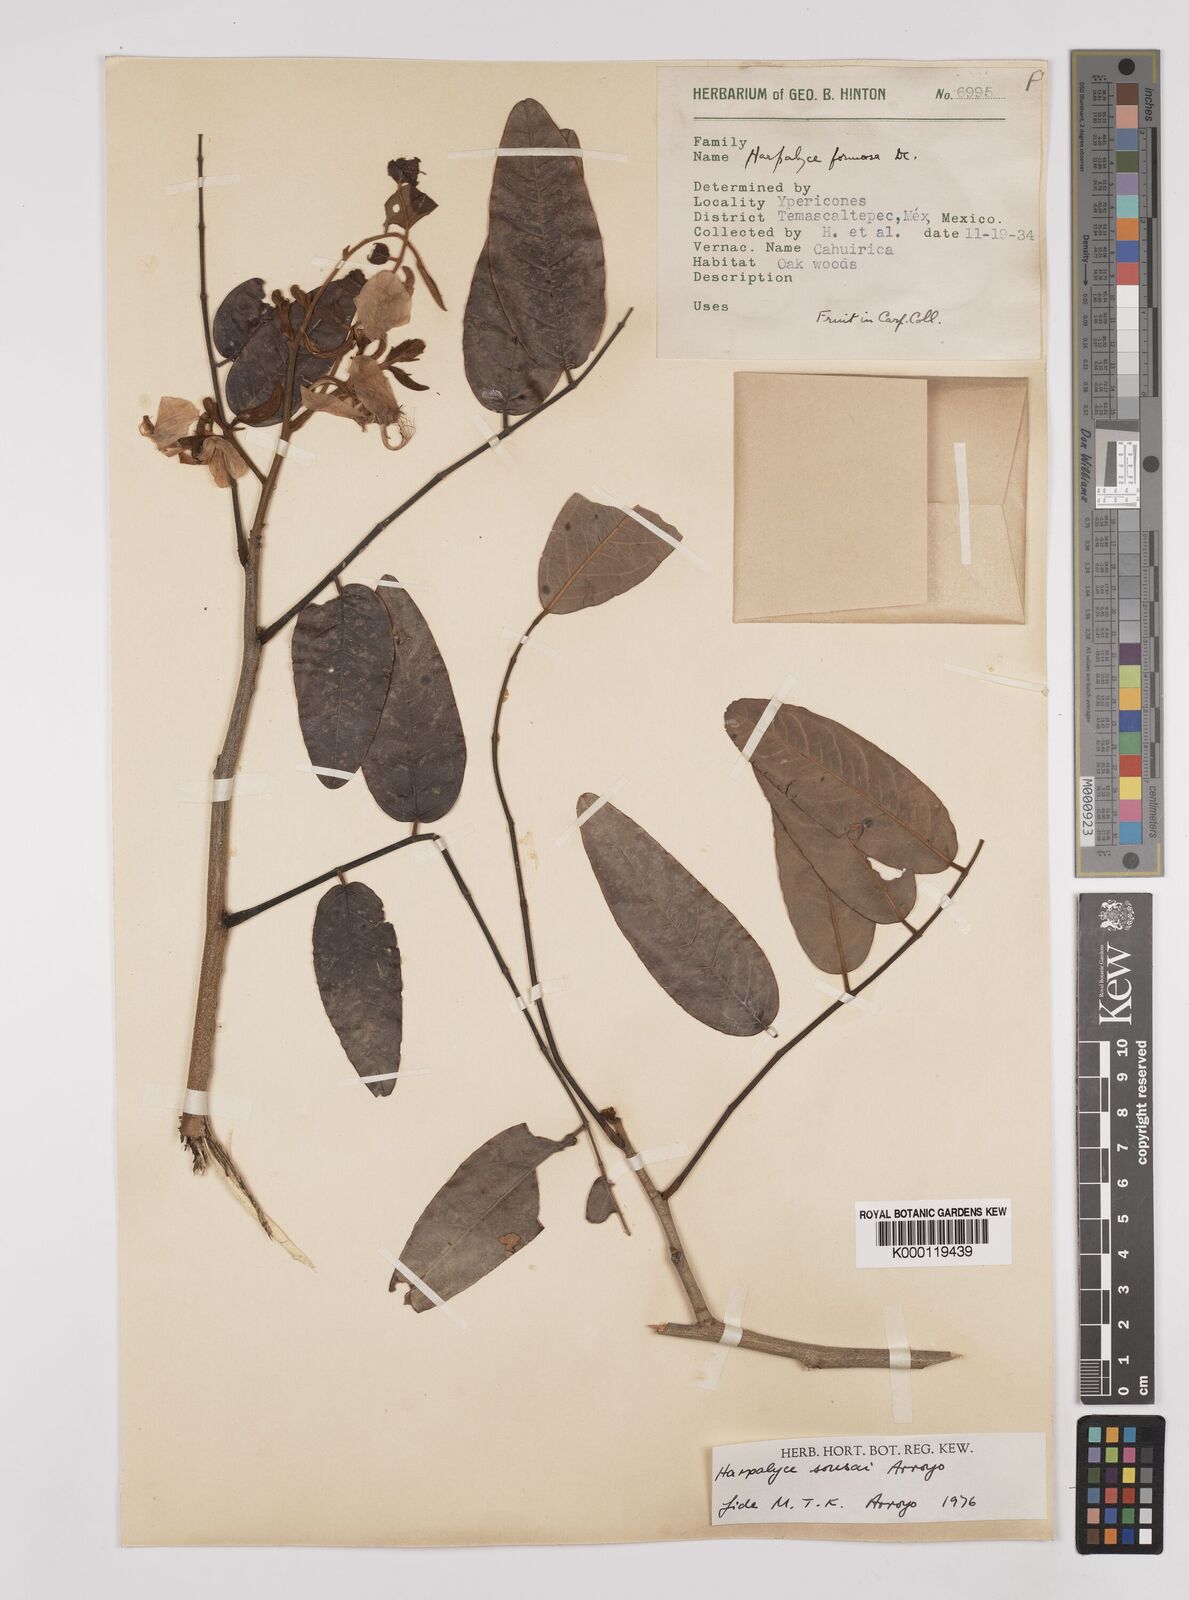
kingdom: Plantae
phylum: Tracheophyta
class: Magnoliopsida
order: Fabales
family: Fabaceae
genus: Harpalyce
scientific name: Harpalyce
